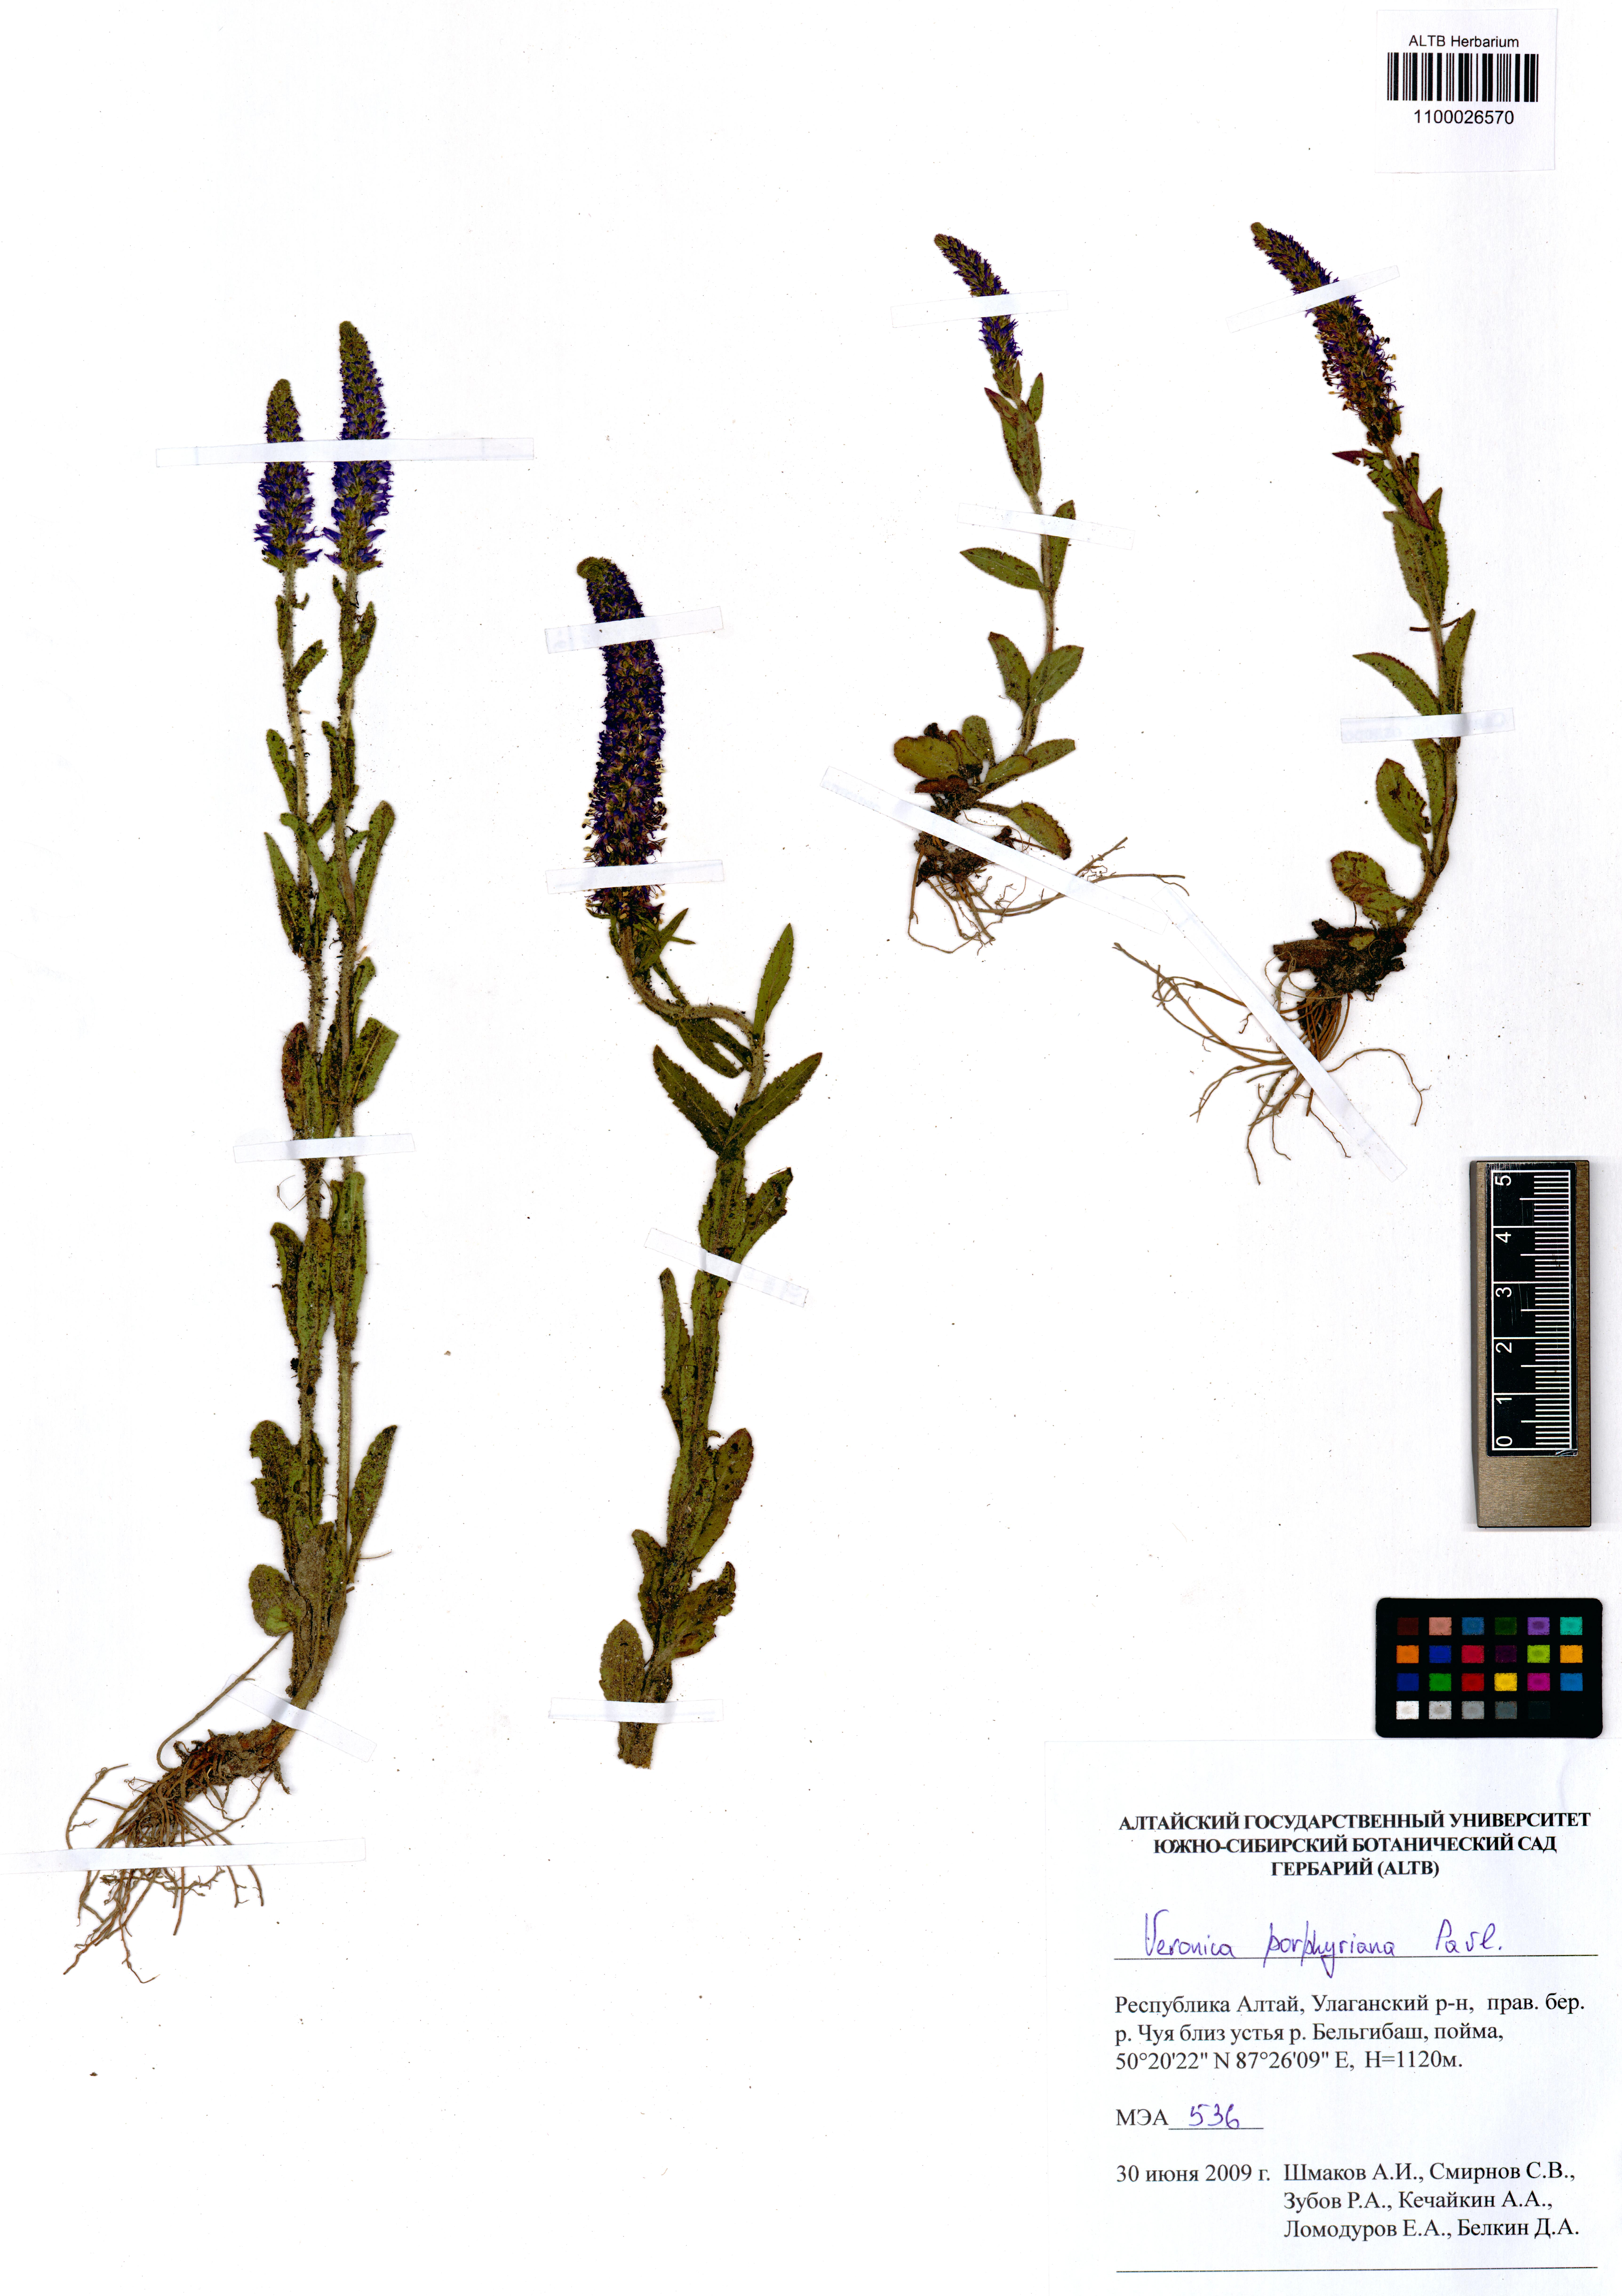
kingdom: Plantae
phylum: Tracheophyta
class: Magnoliopsida
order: Lamiales
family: Plantaginaceae
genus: Veronica
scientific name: Veronica porphyriana
